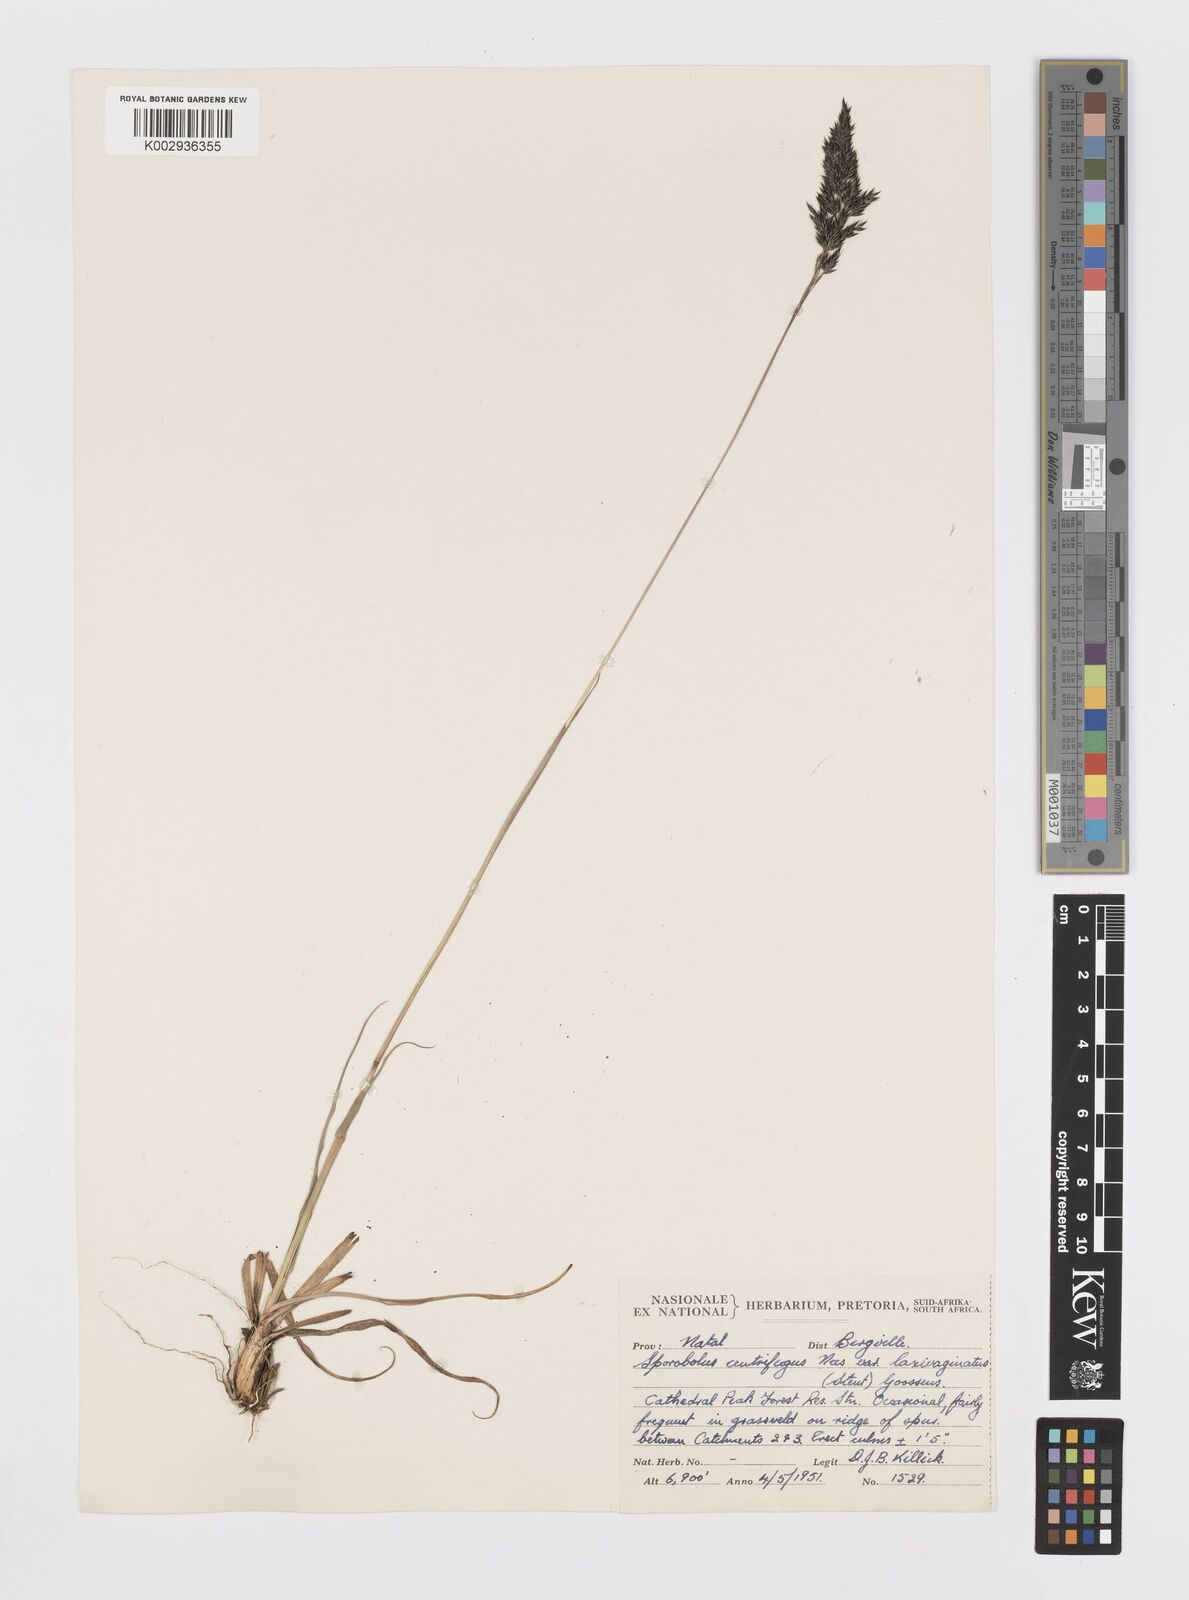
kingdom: Plantae
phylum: Tracheophyta
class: Liliopsida
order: Poales
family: Poaceae
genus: Sporobolus
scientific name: Sporobolus centrifugus
